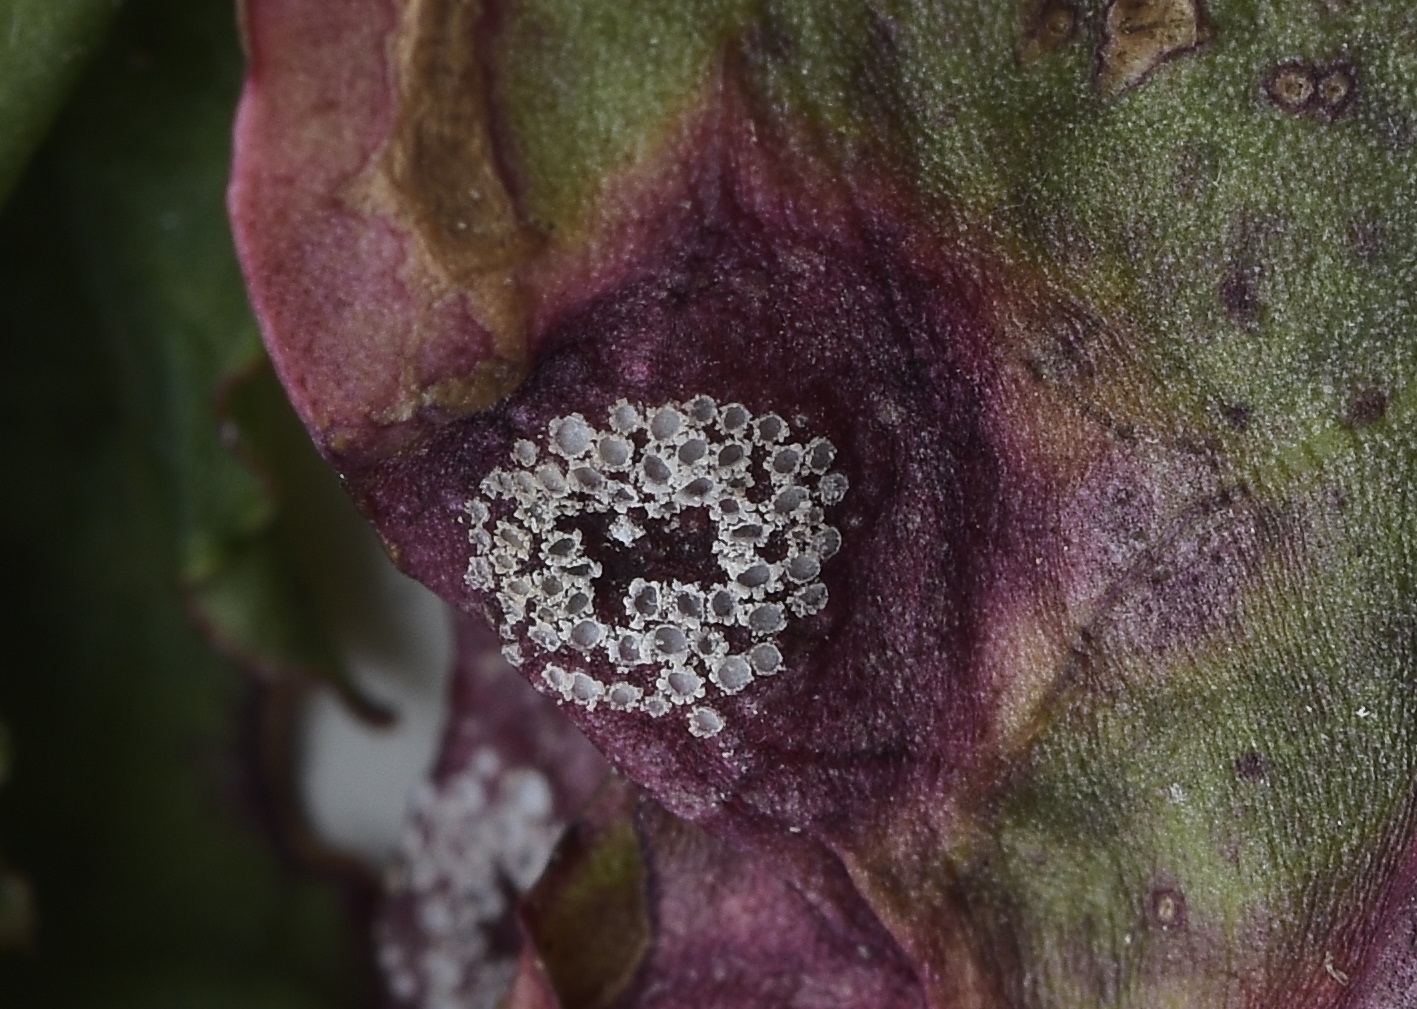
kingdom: Fungi
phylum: Basidiomycota
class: Pucciniomycetes
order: Pucciniales
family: Pucciniaceae
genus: Puccinia
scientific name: Puccinia phragmitis
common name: tagrør-tvecellerust
